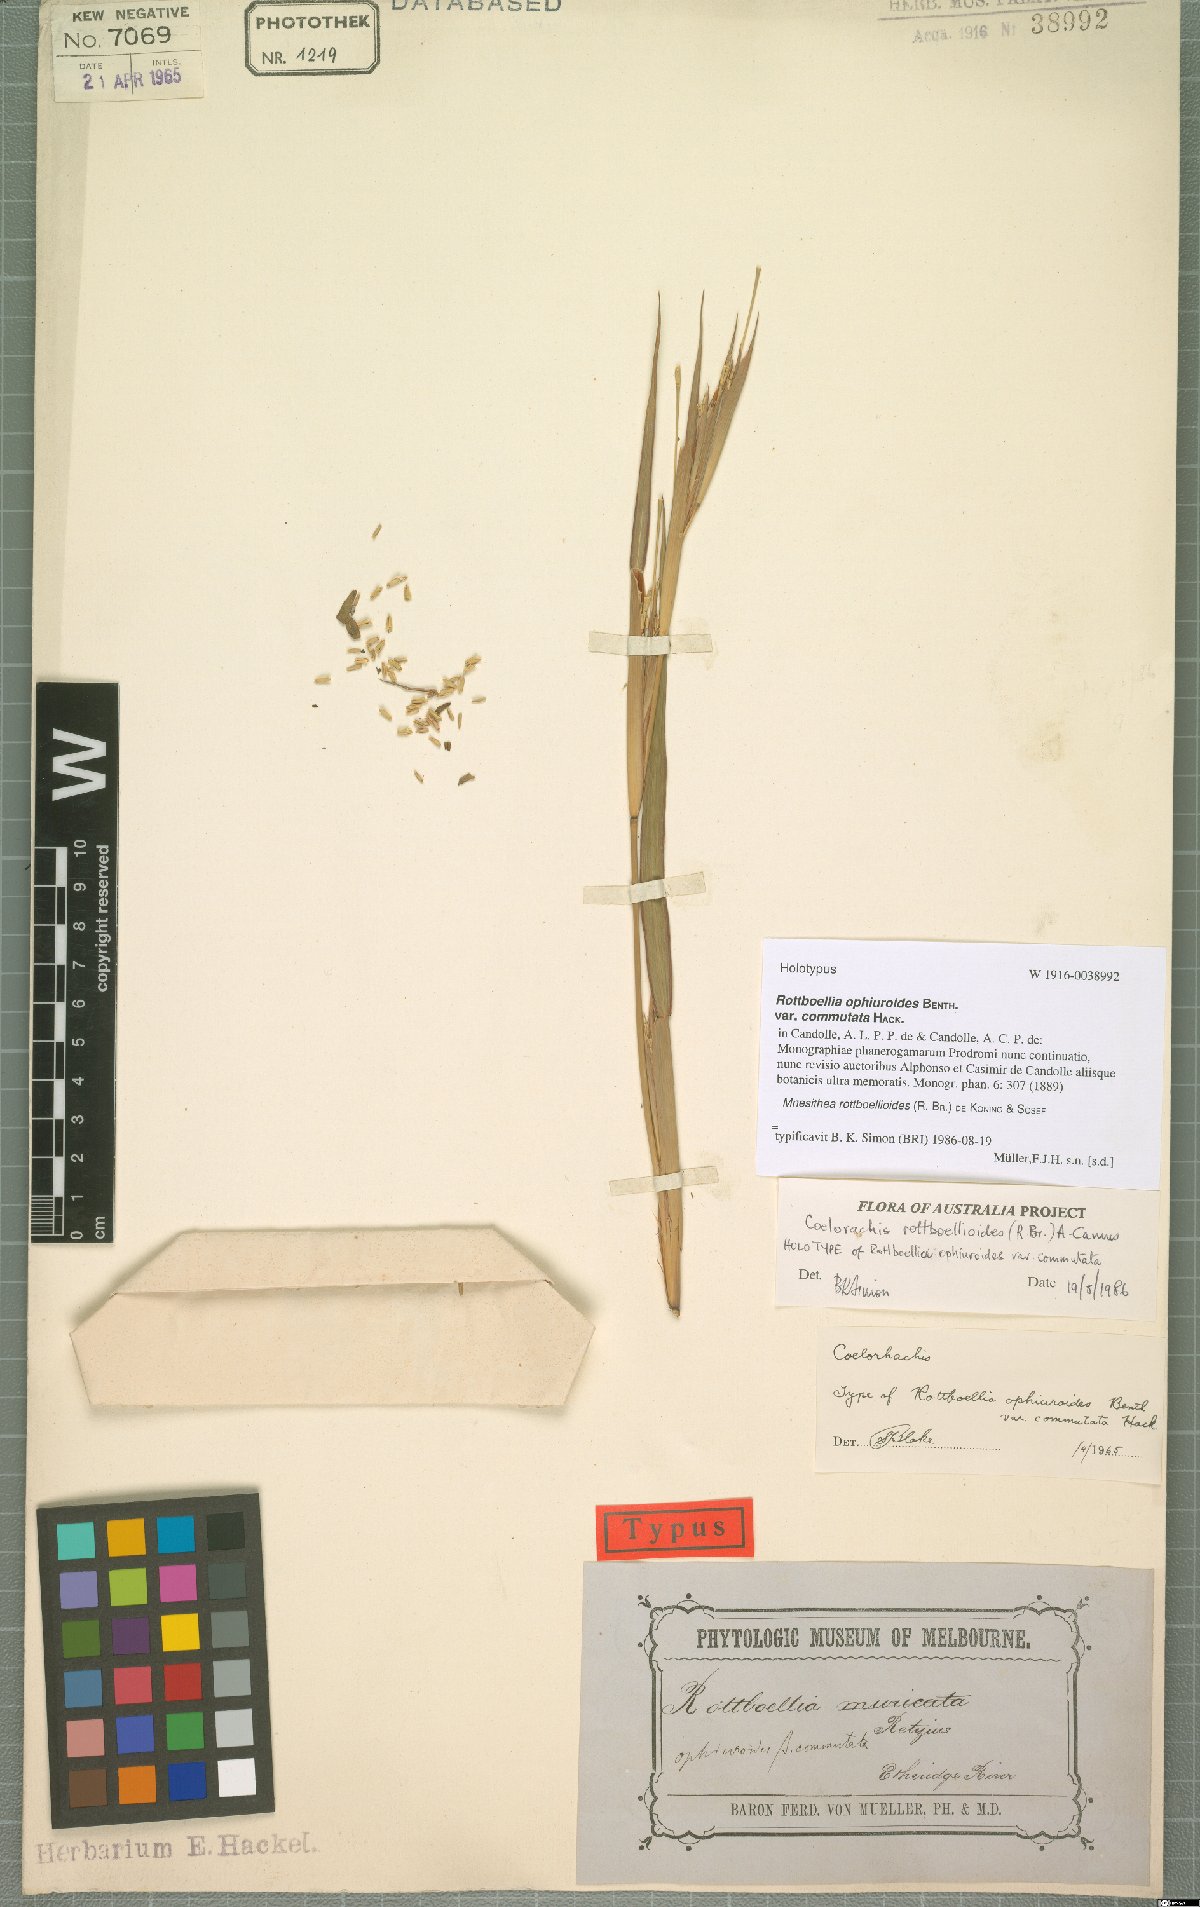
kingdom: Plantae
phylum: Tracheophyta
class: Liliopsida
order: Poales
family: Poaceae
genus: Agrostis
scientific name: Agrostis capillaris
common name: Colonial bentgrass
